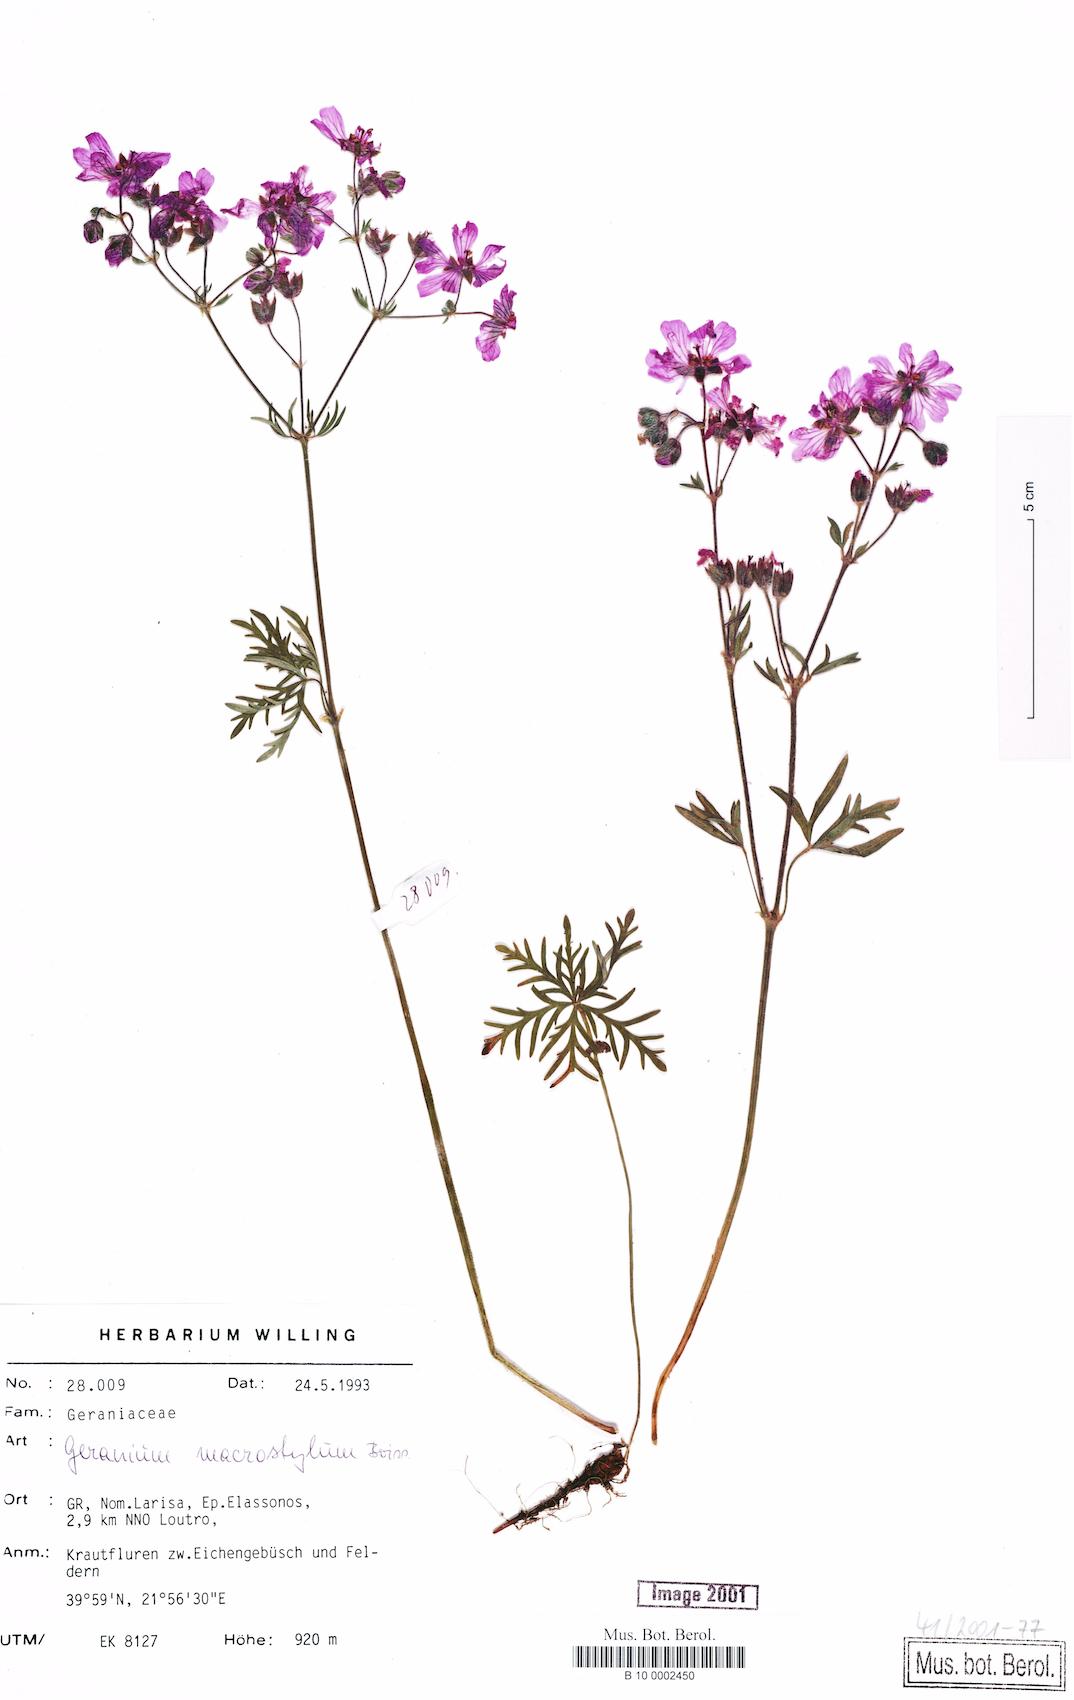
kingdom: Plantae
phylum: Tracheophyta
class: Magnoliopsida
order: Geraniales
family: Geraniaceae
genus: Geranium
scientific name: Geranium macrostylum
